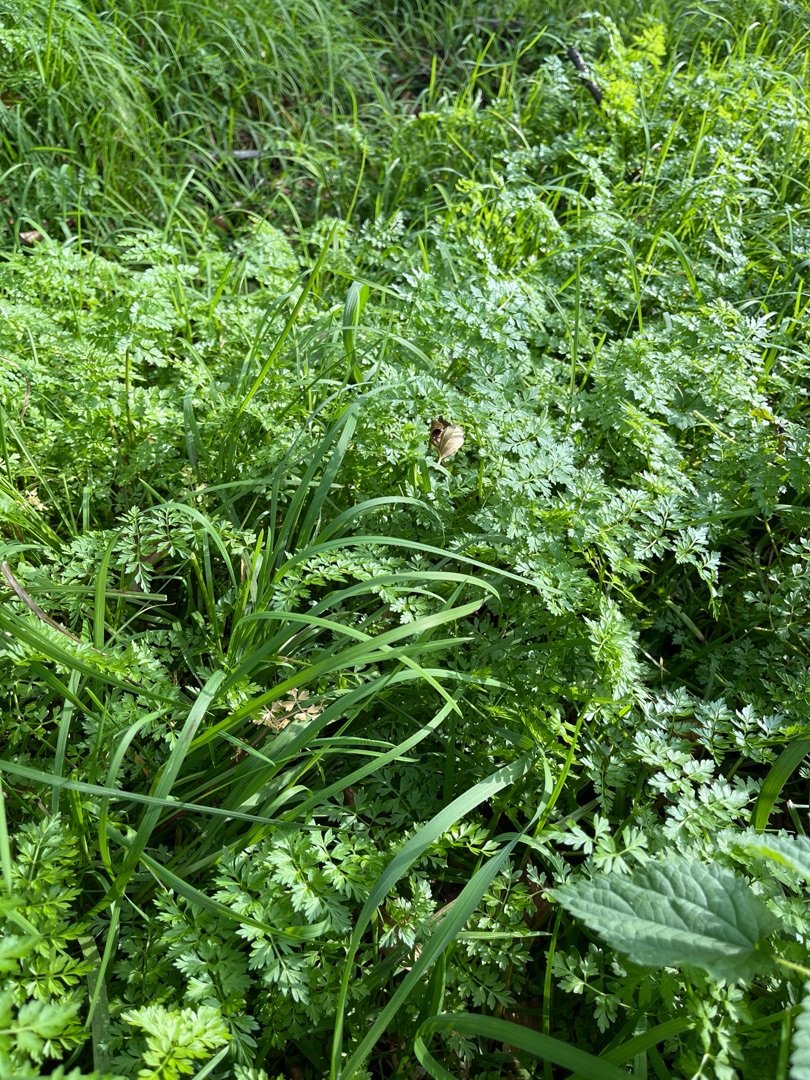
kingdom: Plantae
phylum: Tracheophyta
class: Magnoliopsida
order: Apiales
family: Apiaceae
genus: Oenanthe
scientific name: Oenanthe aquatica
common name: Billebo-klaseskærm
